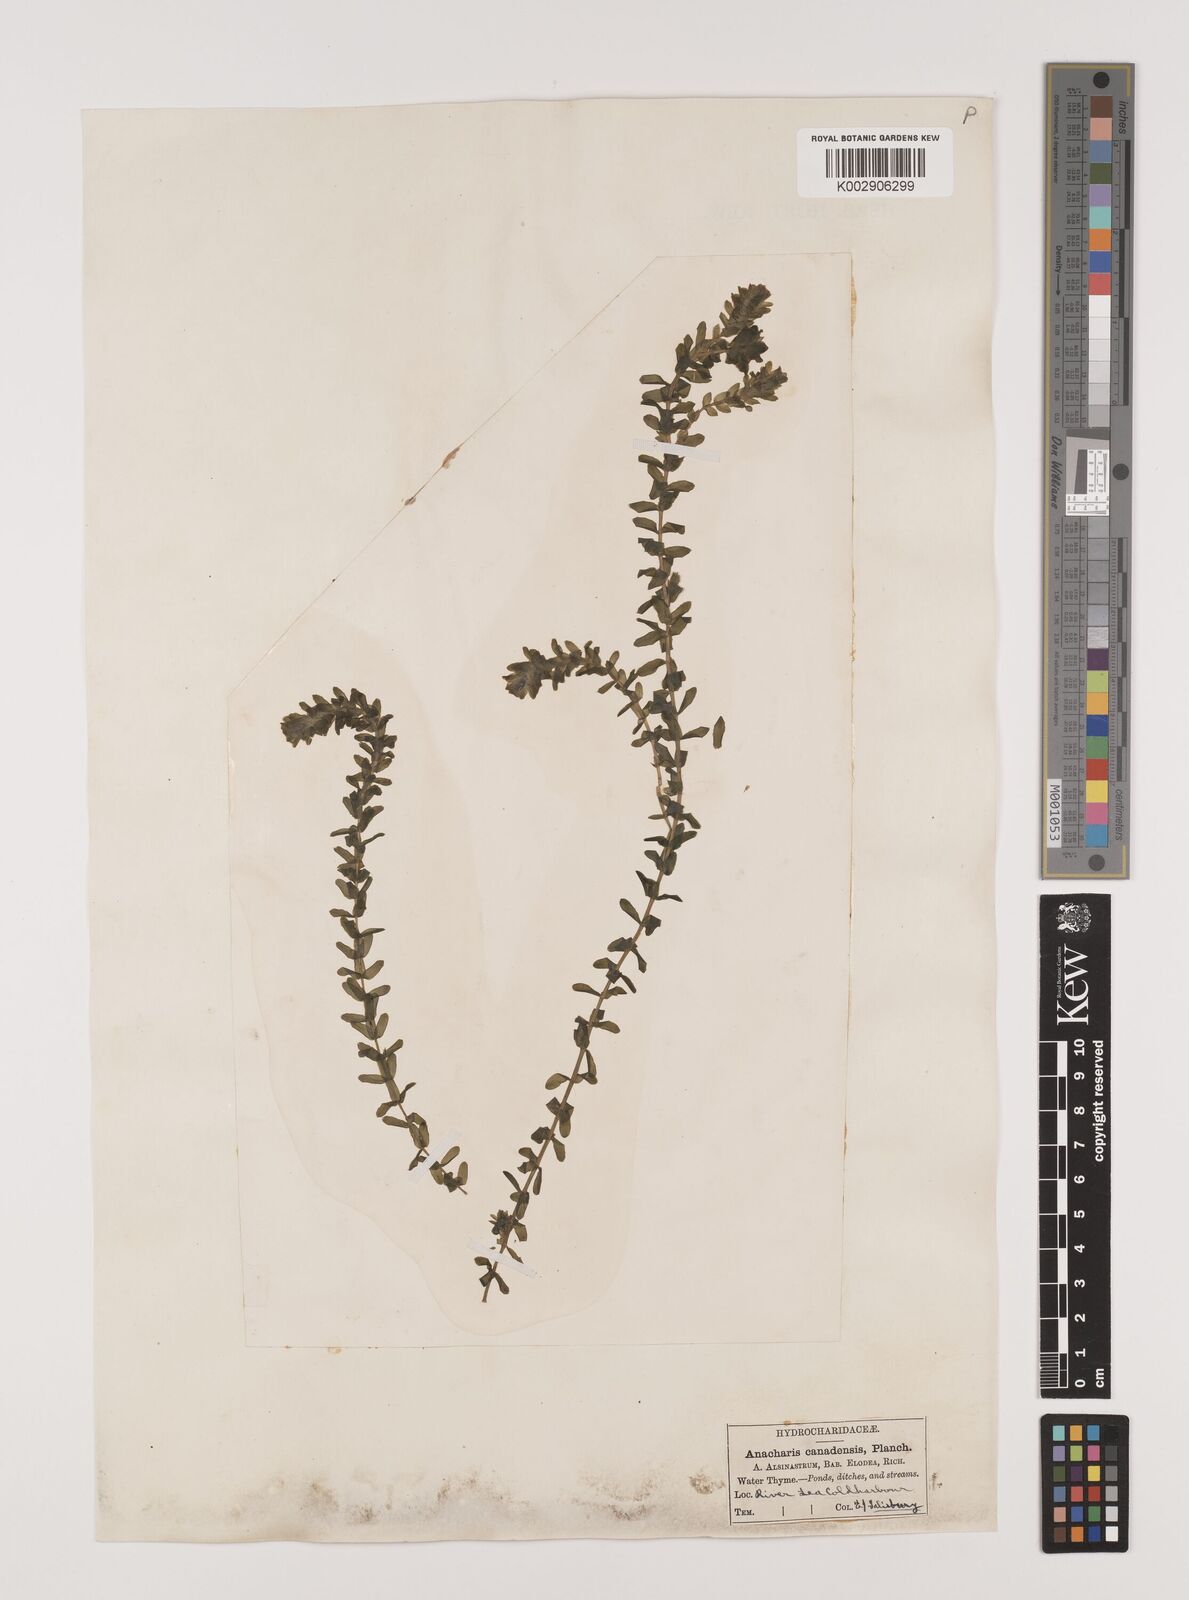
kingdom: Plantae
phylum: Tracheophyta
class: Liliopsida
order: Alismatales
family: Hydrocharitaceae
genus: Elodea
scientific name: Elodea canadensis
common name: Canadian waterweed
